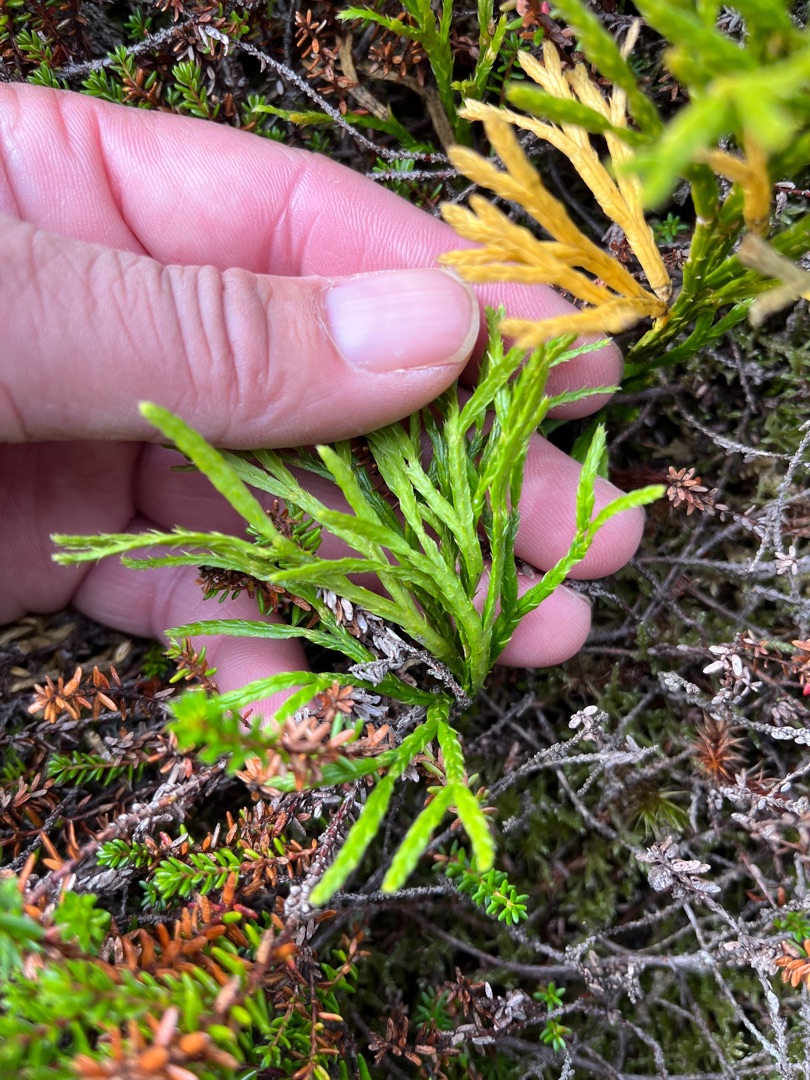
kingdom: Plantae
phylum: Tracheophyta
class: Lycopodiopsida
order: Lycopodiales
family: Lycopodiaceae
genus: Diphasiastrum
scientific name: Diphasiastrum complanatum
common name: Flad ulvefod
